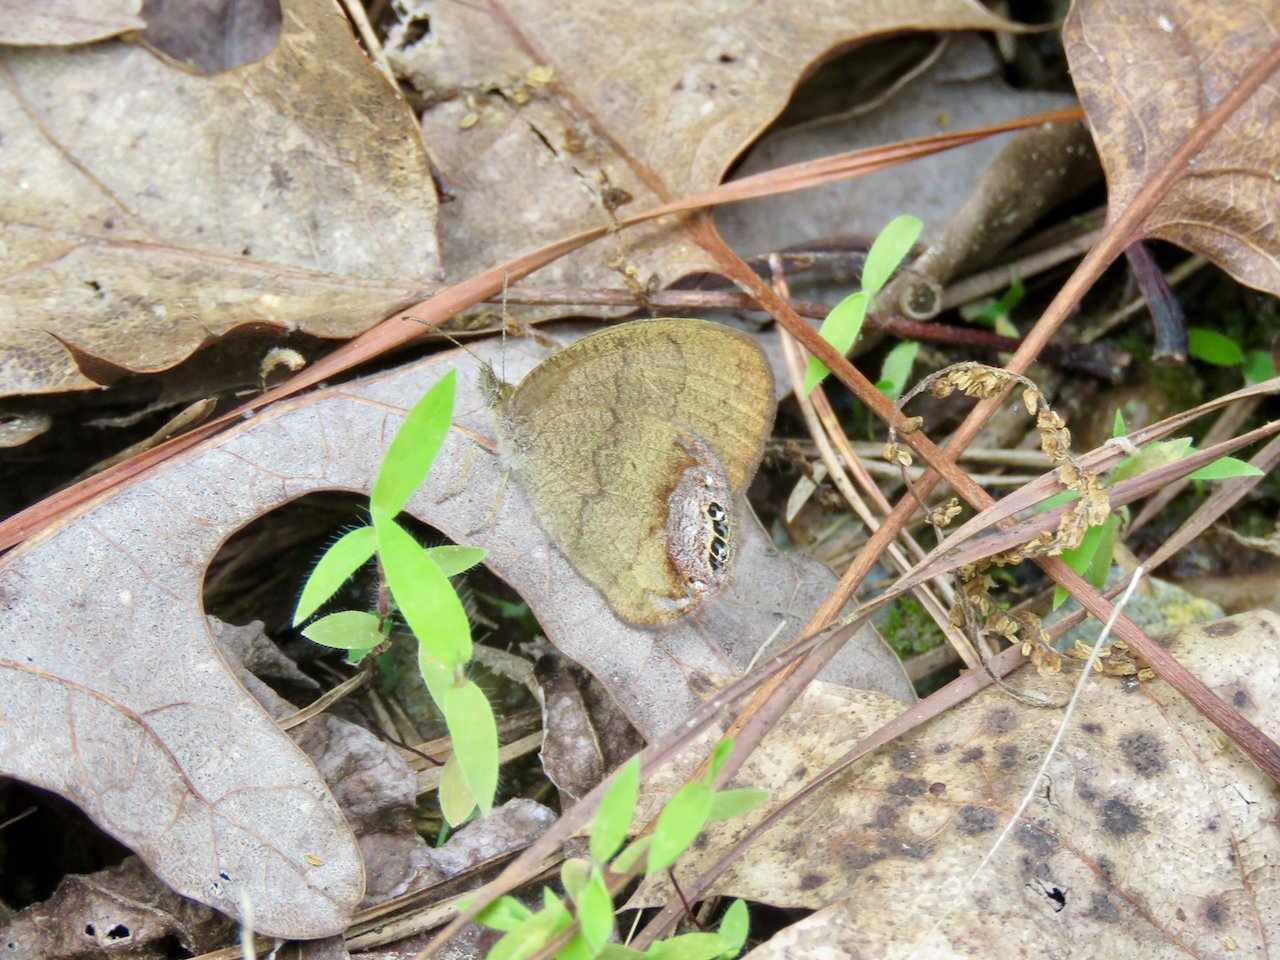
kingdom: Animalia
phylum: Arthropoda
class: Insecta
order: Lepidoptera
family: Nymphalidae
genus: Euptychia
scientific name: Euptychia cornelius
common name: Gemmed Satyr
